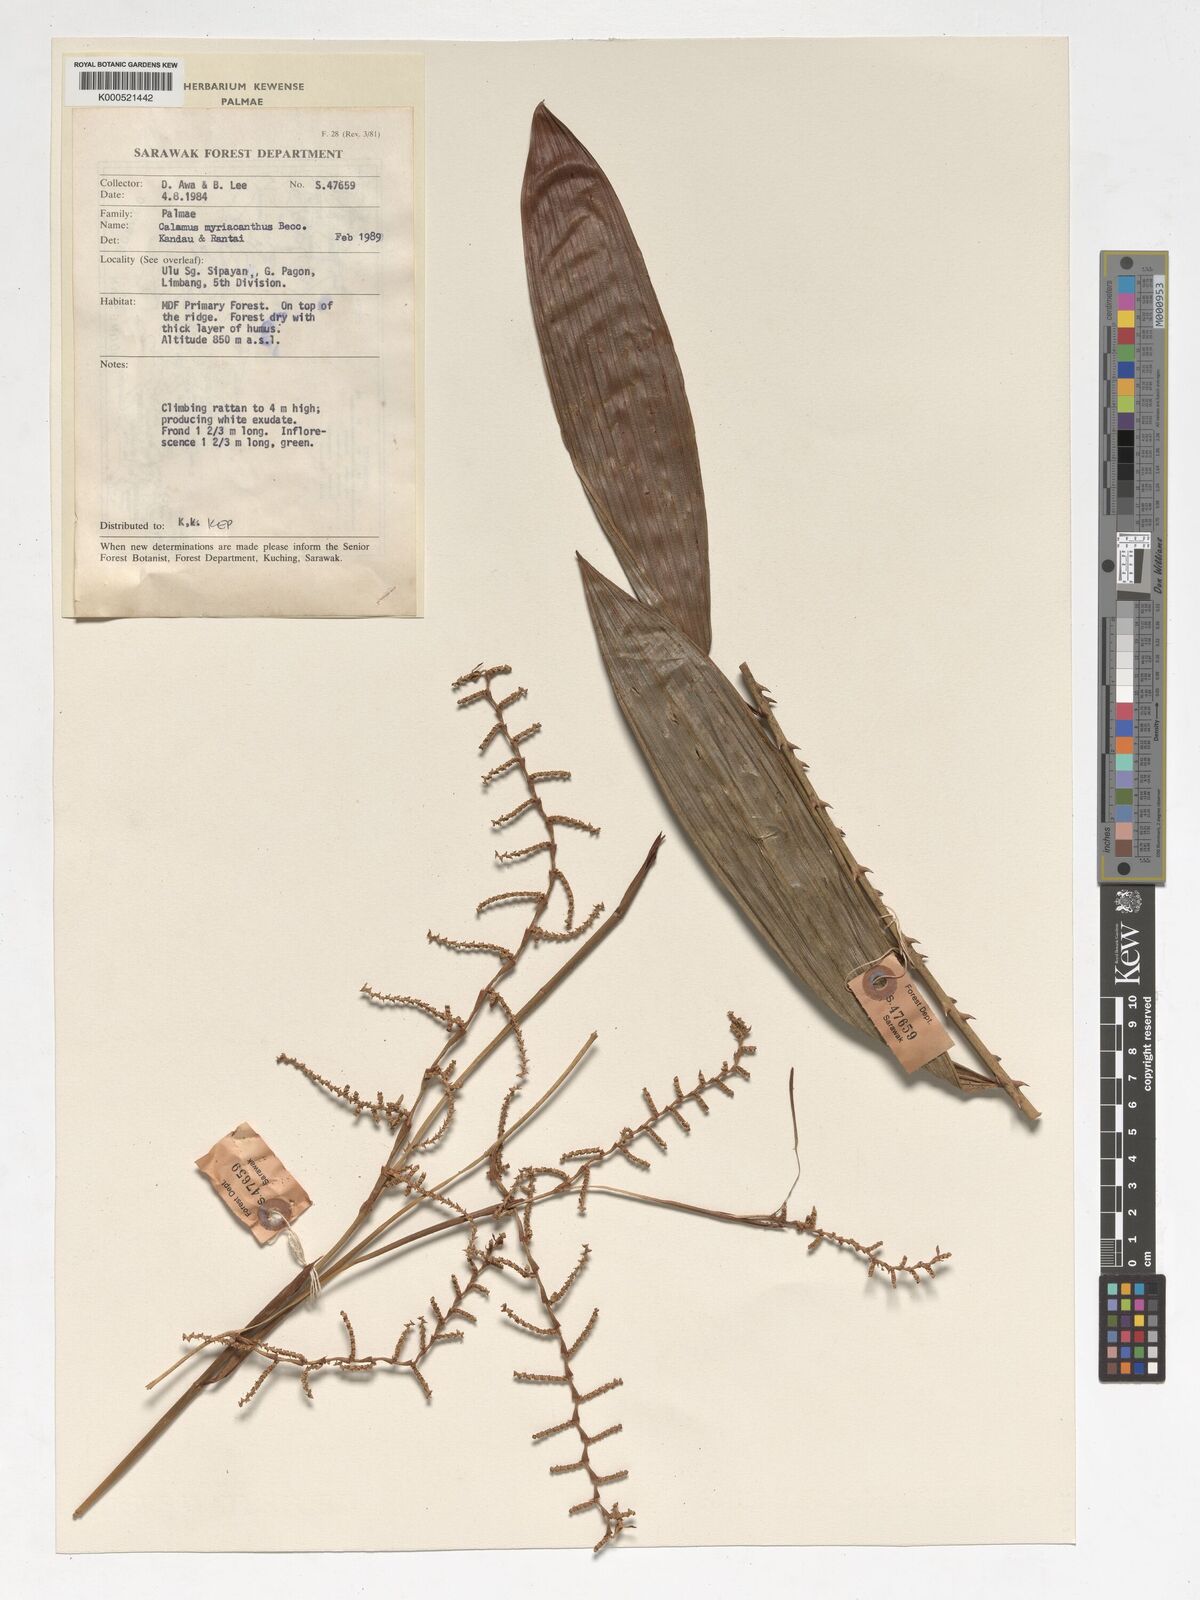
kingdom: Plantae
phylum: Tracheophyta
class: Liliopsida
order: Arecales
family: Arecaceae
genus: Calamus
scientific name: Calamus myriacanthus
